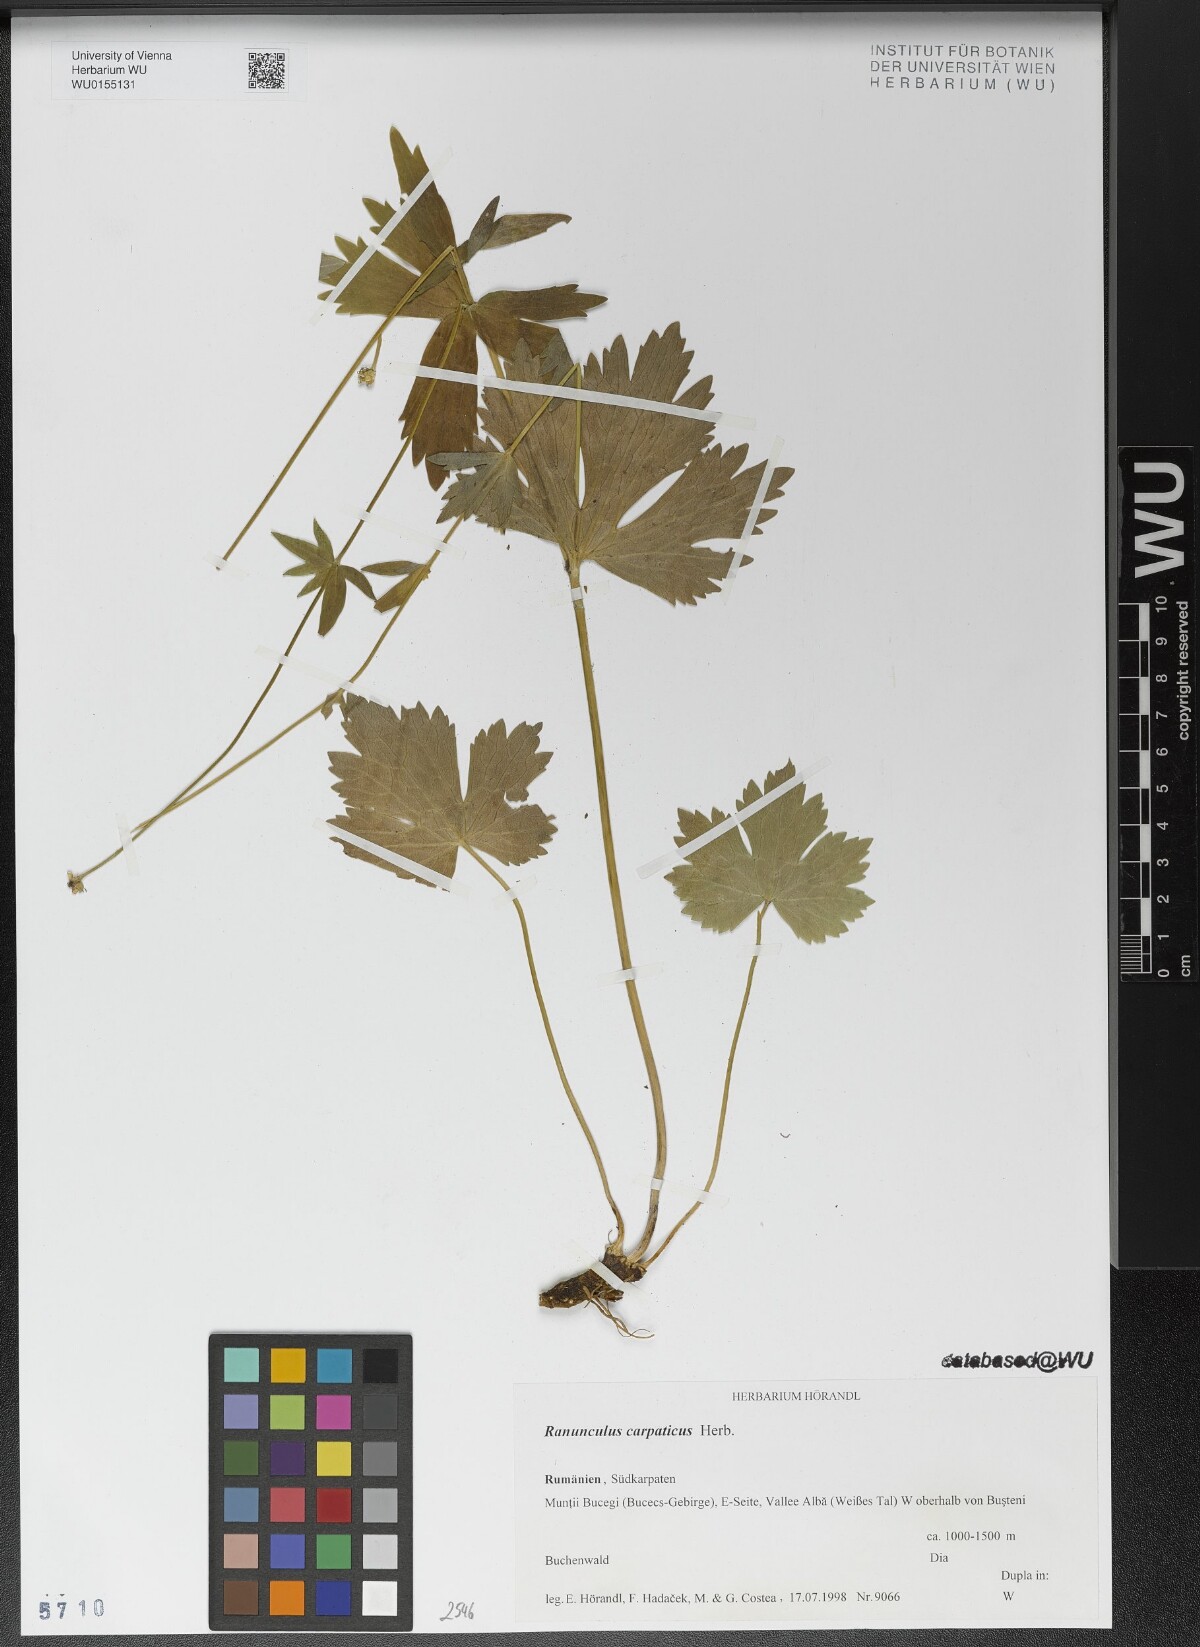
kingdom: Plantae
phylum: Tracheophyta
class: Magnoliopsida
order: Ranunculales
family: Ranunculaceae
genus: Ranunculus
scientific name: Ranunculus carpaticus
